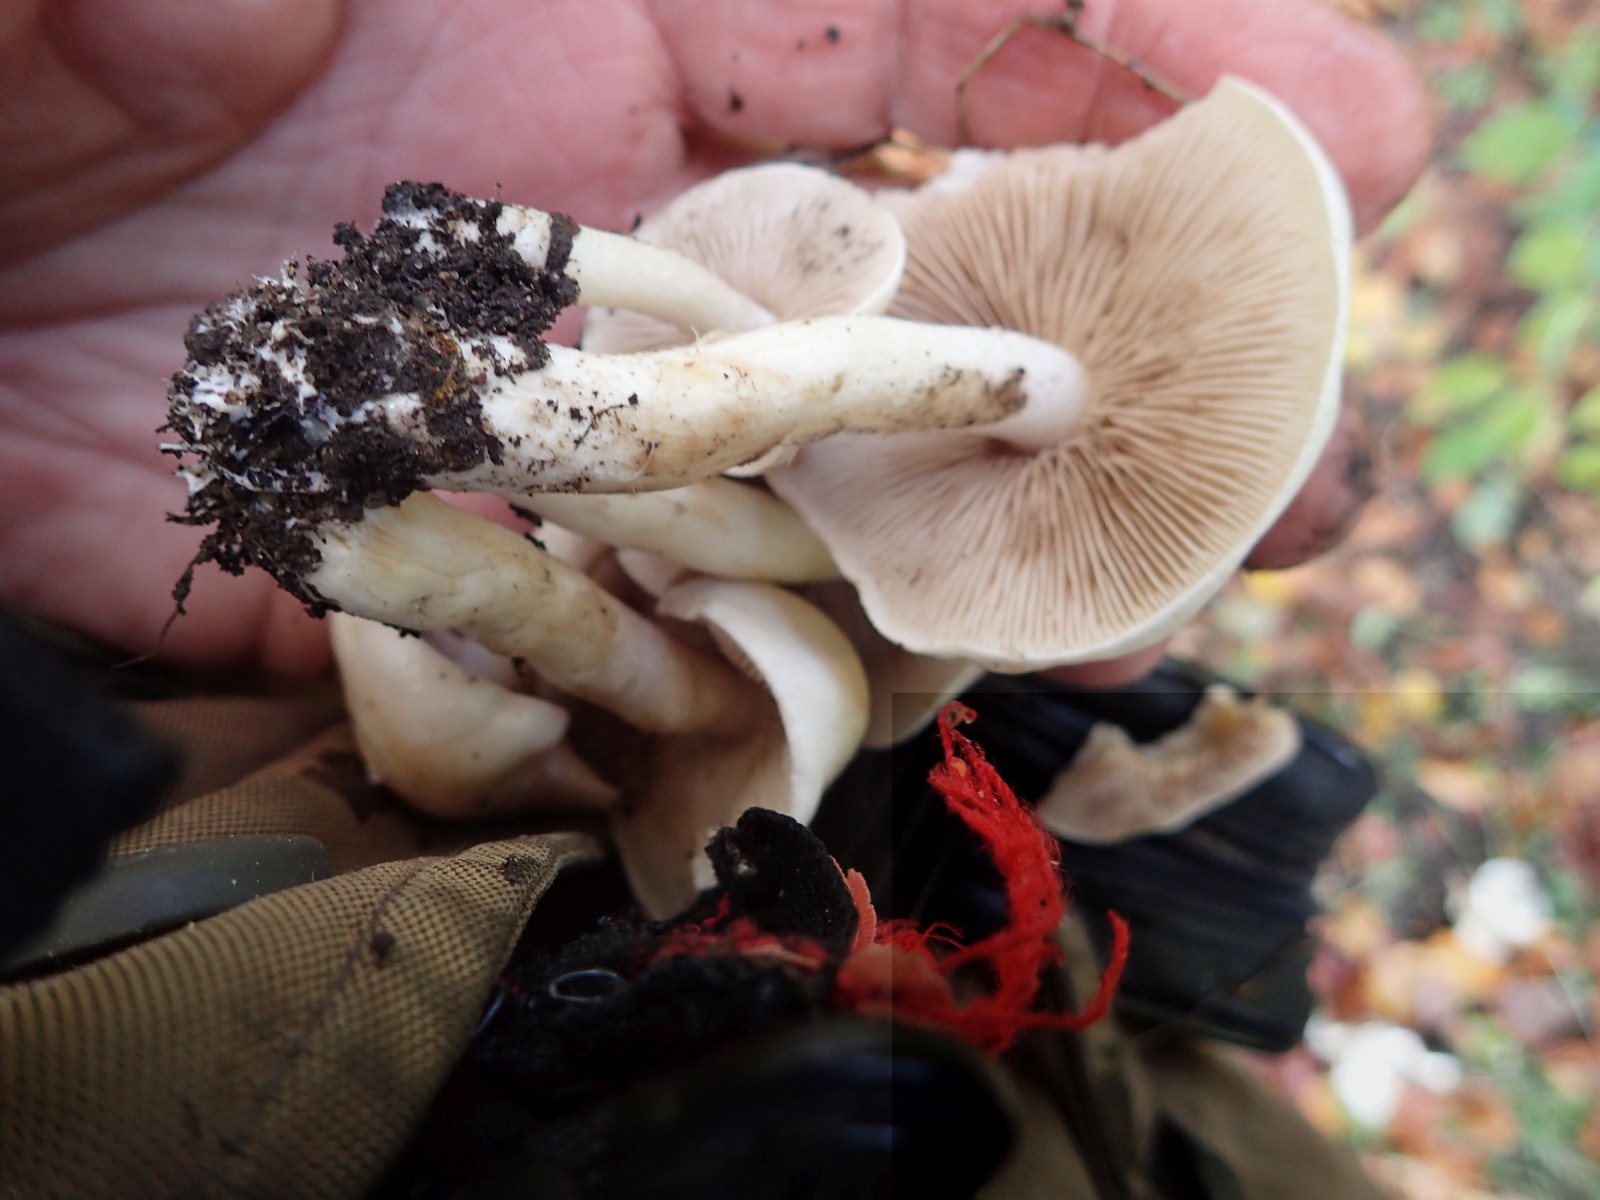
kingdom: Fungi
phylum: Basidiomycota
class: Agaricomycetes
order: Agaricales
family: Strophariaceae
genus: Pholiota
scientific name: Pholiota lenta
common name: løv-skælhat
